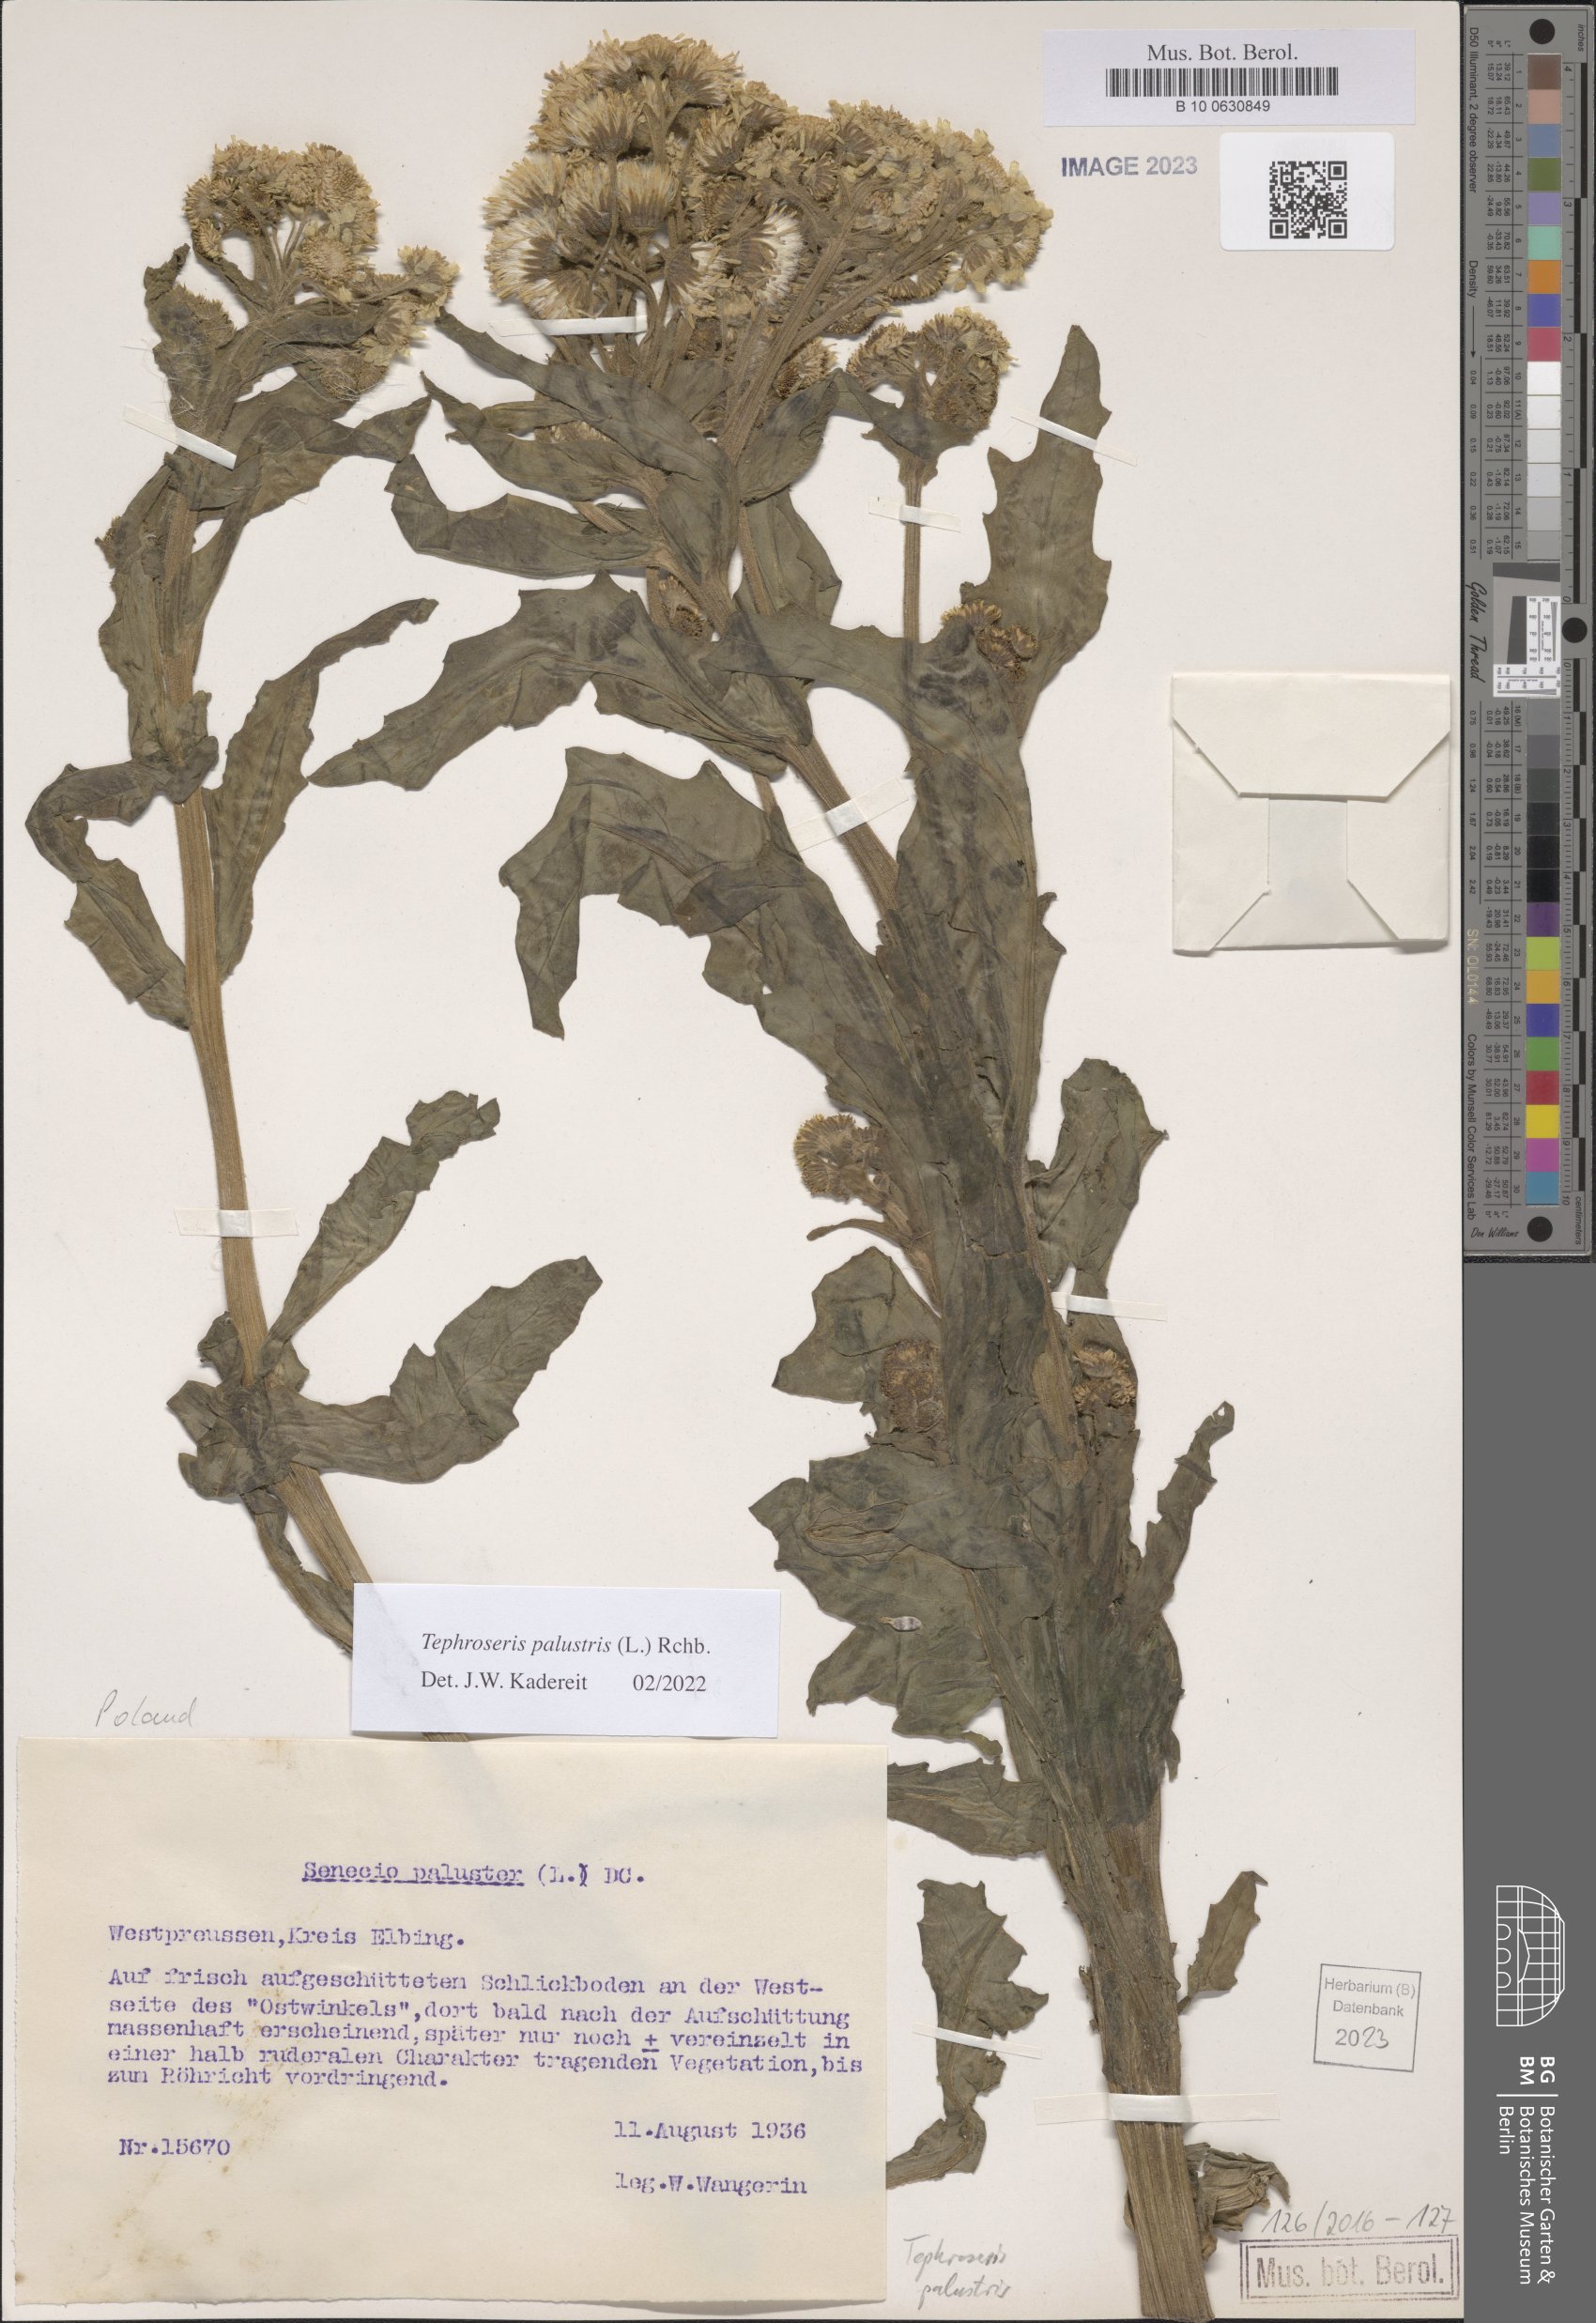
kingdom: Plantae
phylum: Tracheophyta
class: Magnoliopsida
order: Asterales
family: Asteraceae
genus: Tephroseris
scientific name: Tephroseris palustris
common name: Marsh fleawort
